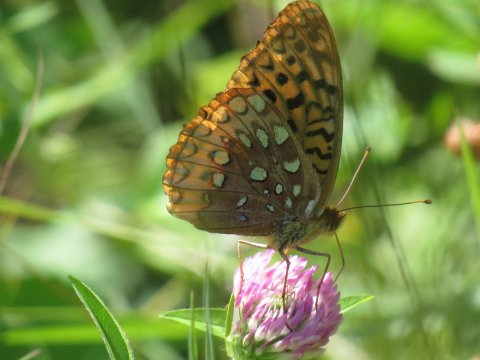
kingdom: Animalia
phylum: Arthropoda
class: Insecta
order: Lepidoptera
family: Nymphalidae
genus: Speyeria
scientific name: Speyeria cybele
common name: Great Spangled Fritillary
